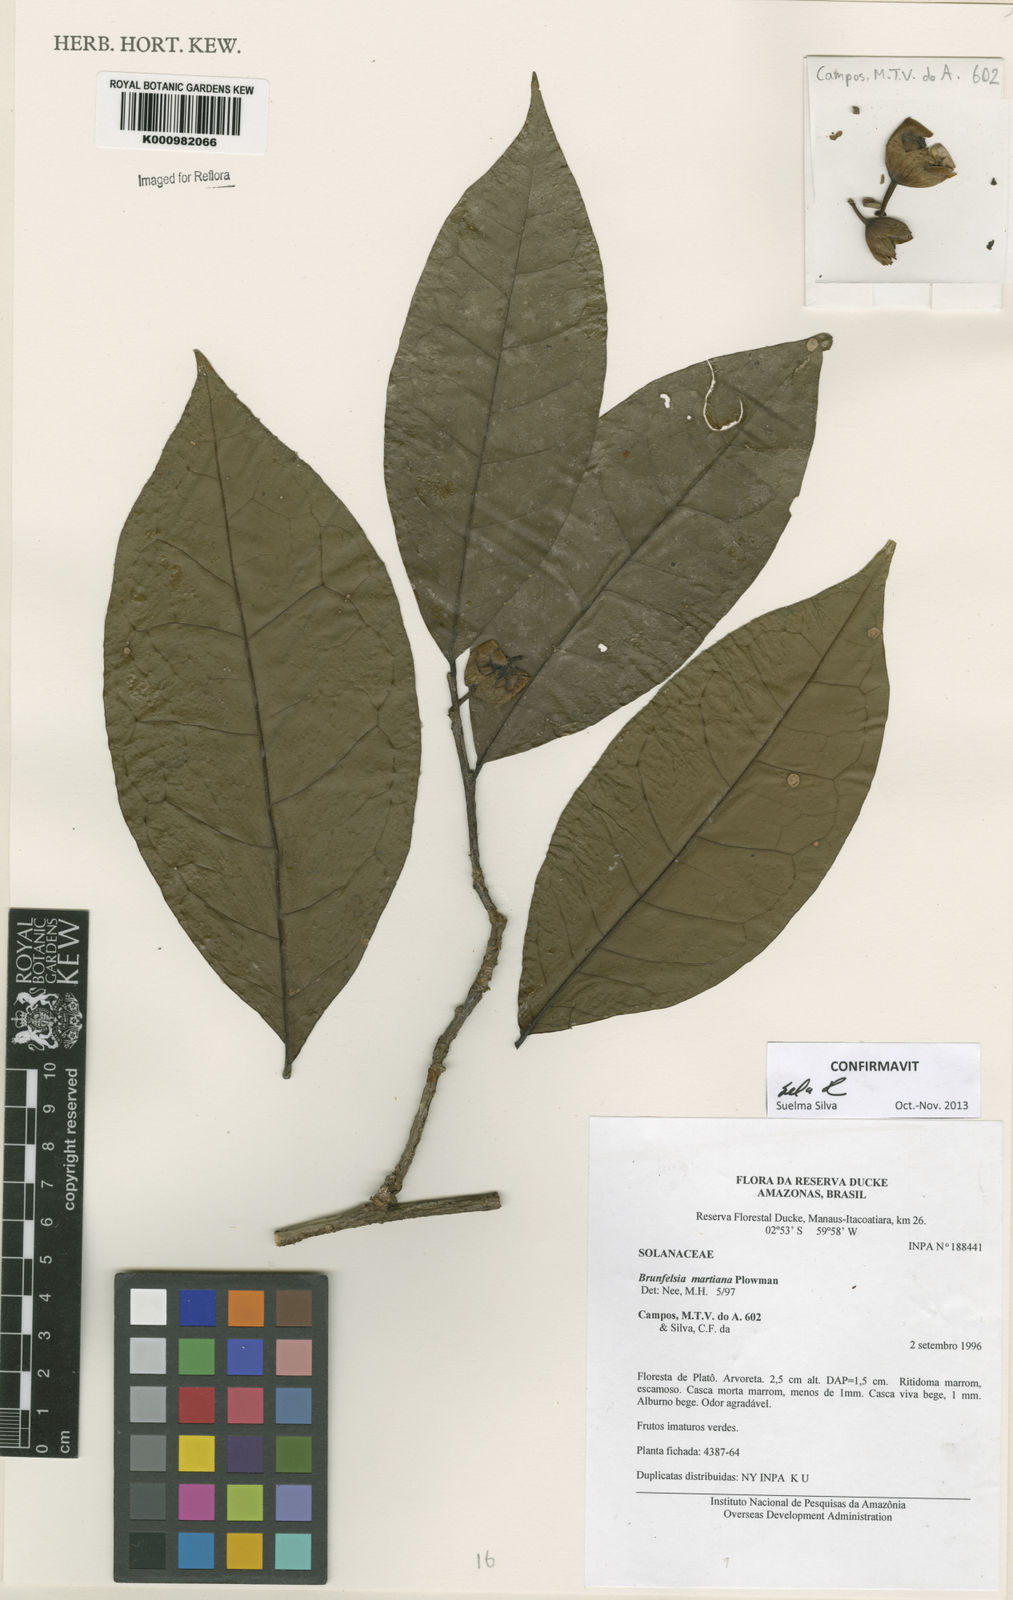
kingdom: Plantae
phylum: Tracheophyta
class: Magnoliopsida
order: Solanales
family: Solanaceae
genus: Brunfelsia
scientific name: Brunfelsia martiana
